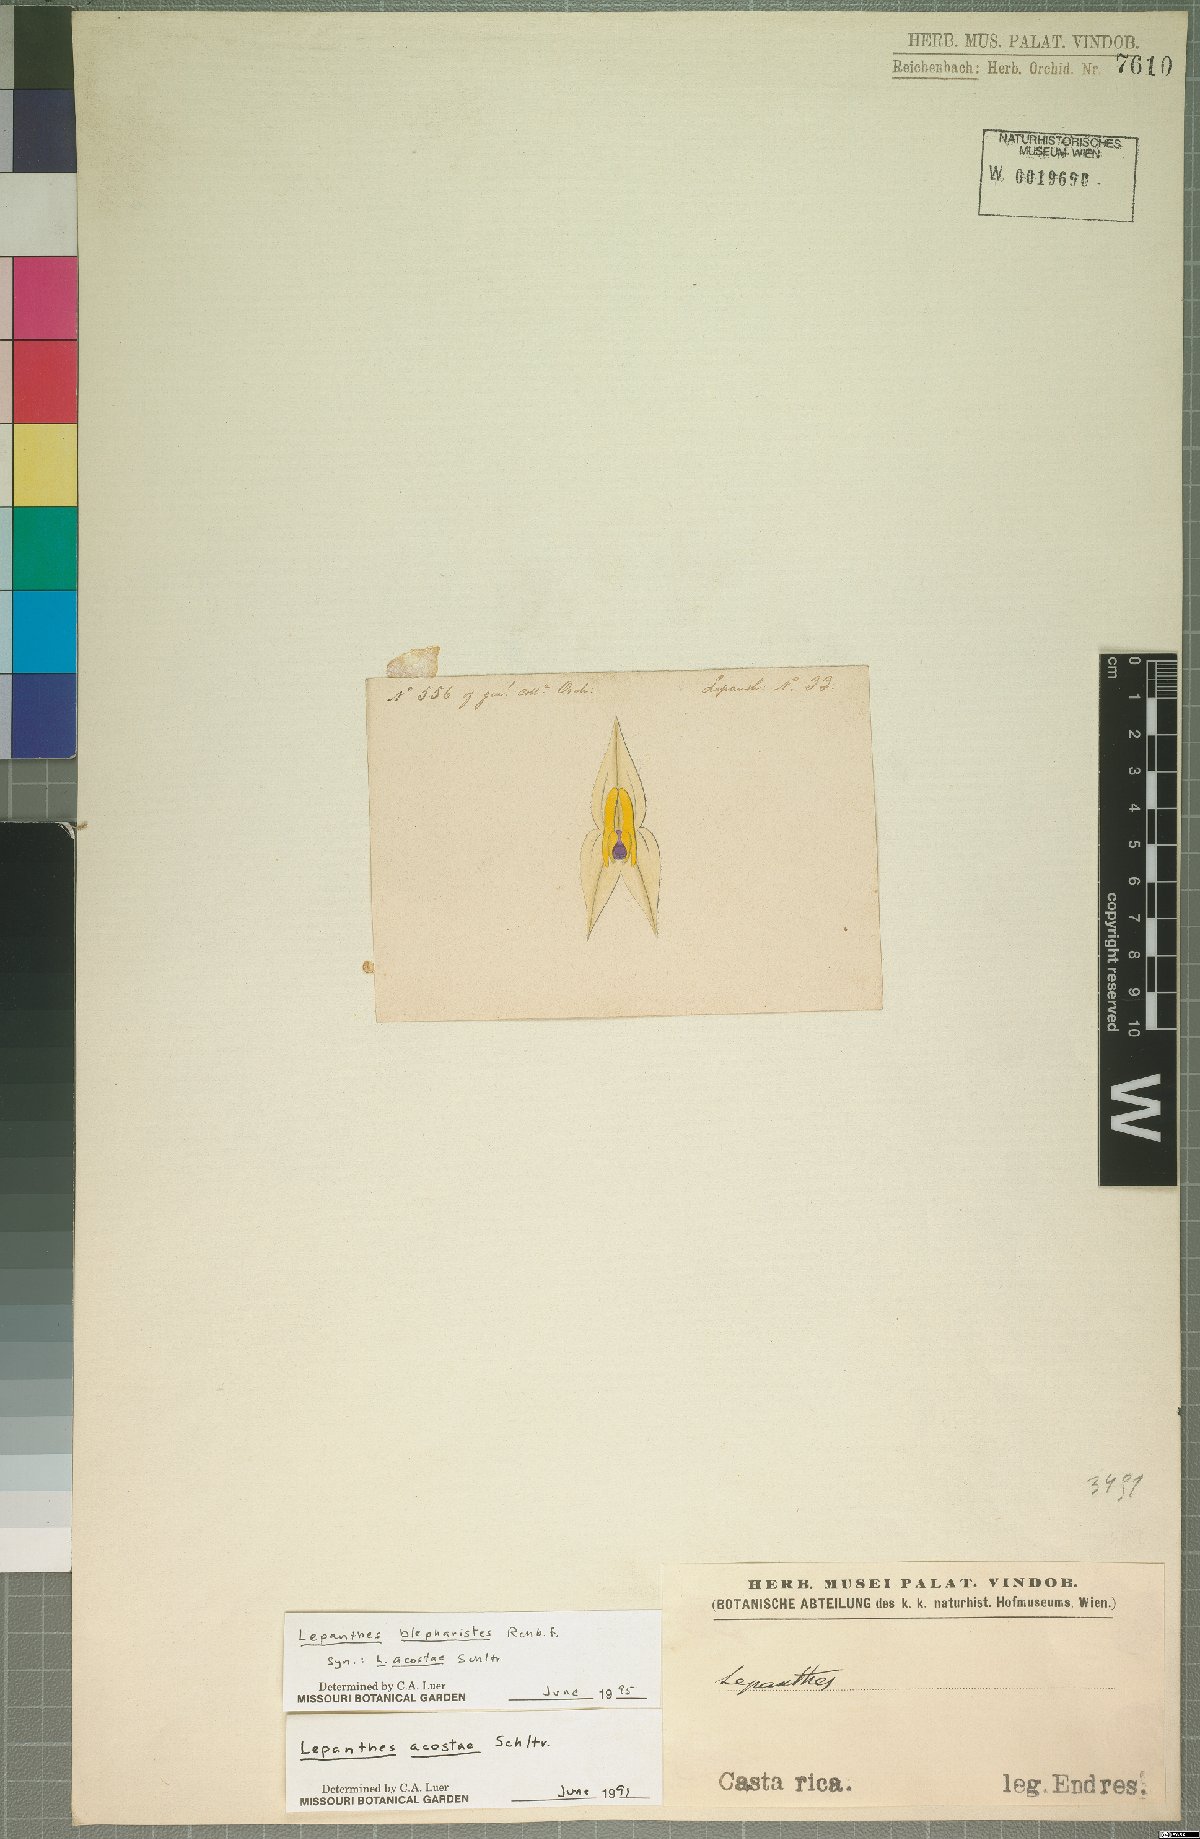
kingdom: Plantae
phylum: Tracheophyta
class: Liliopsida
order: Asparagales
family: Orchidaceae
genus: Lepanthes
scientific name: Lepanthes blepharistes
